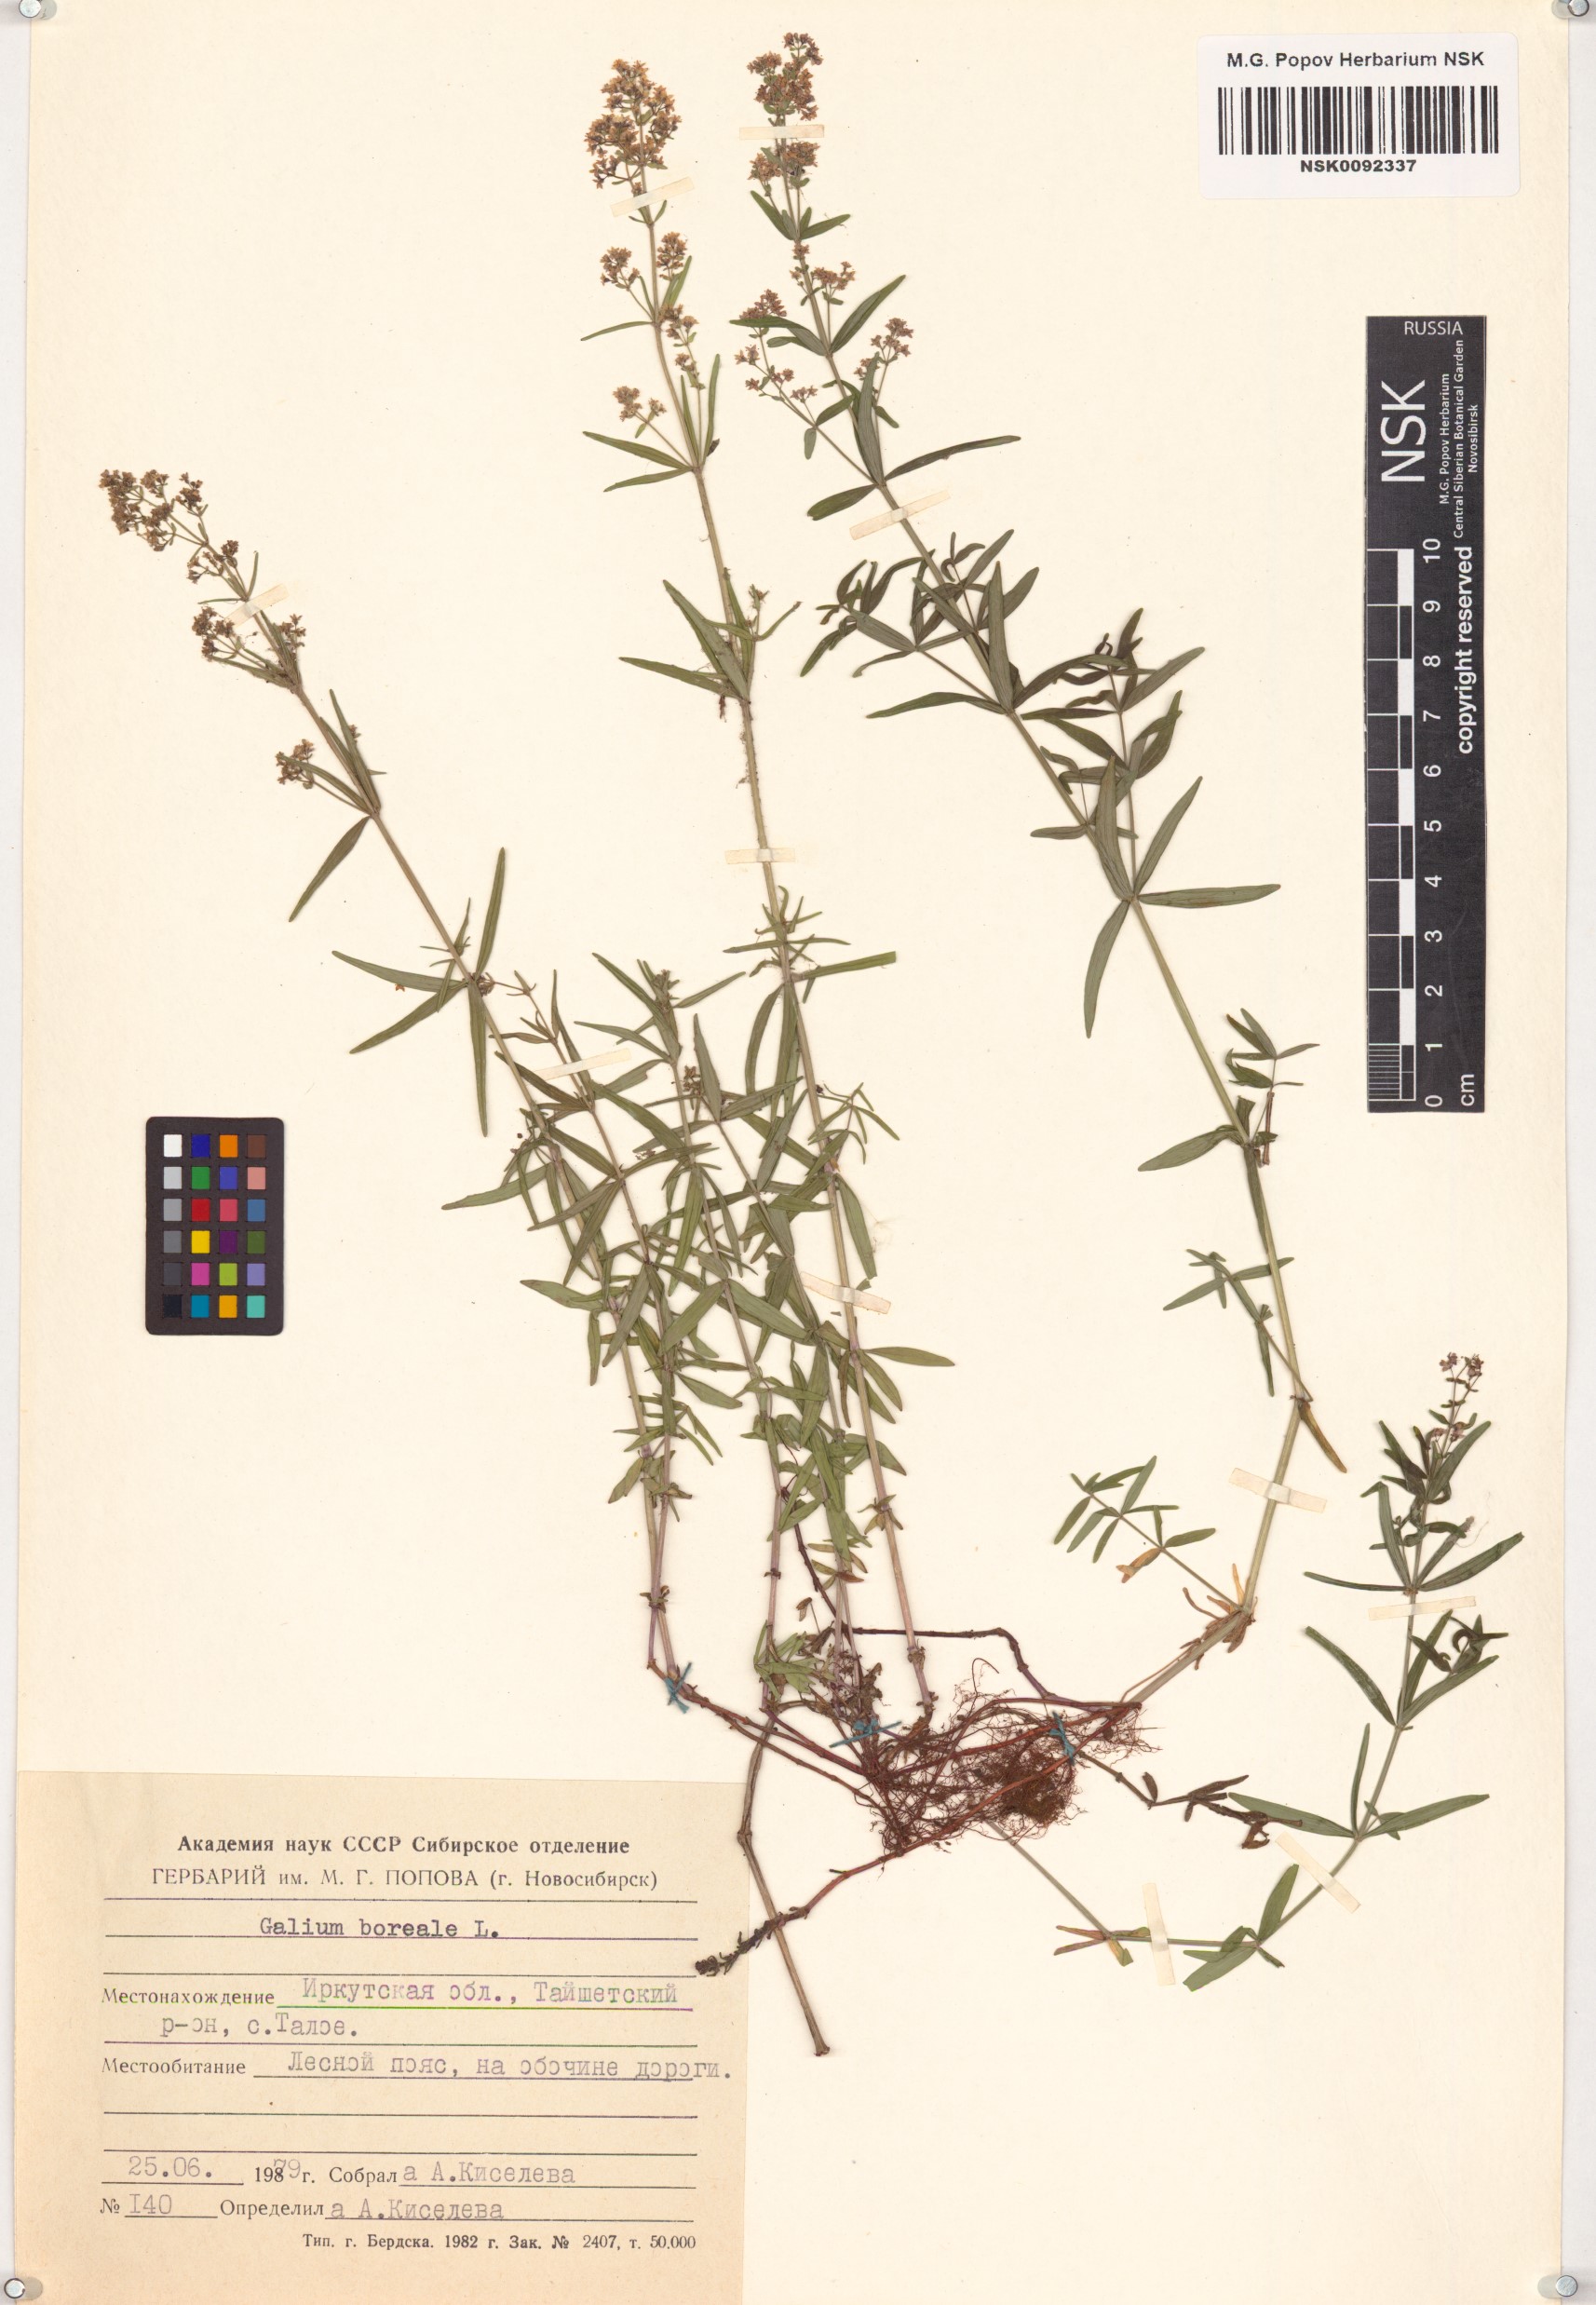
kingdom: Plantae
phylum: Tracheophyta
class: Magnoliopsida
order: Gentianales
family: Rubiaceae
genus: Galium
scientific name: Galium boreale
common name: Northern bedstraw
